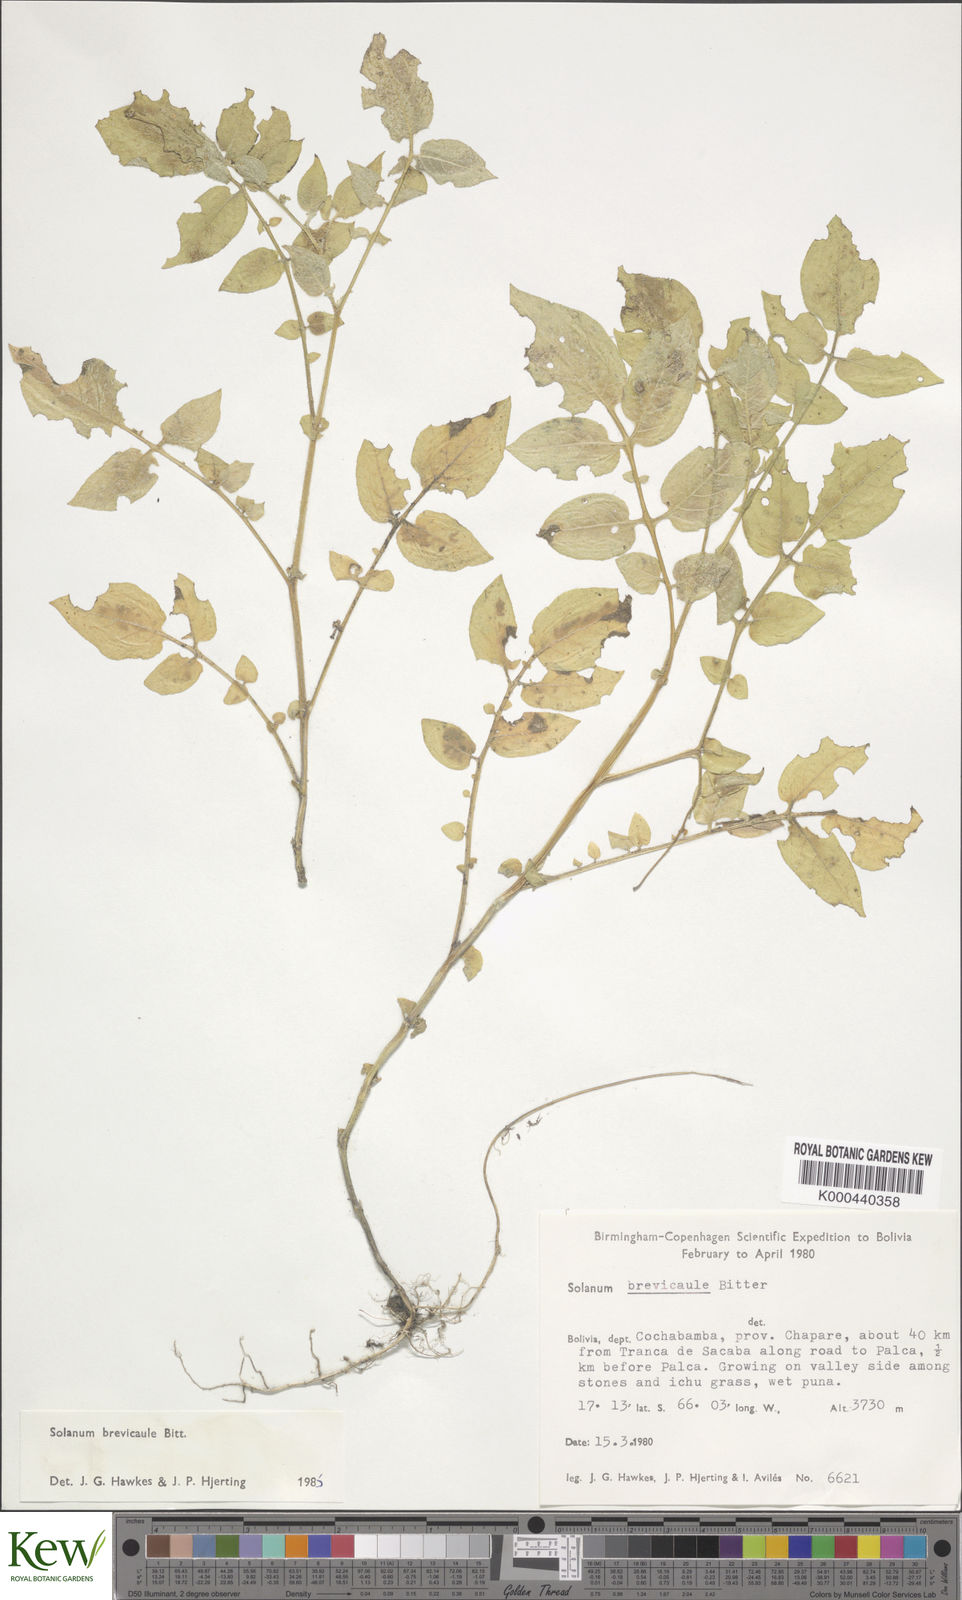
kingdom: Plantae
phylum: Tracheophyta
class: Magnoliopsida
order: Solanales
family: Solanaceae
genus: Solanum
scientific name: Solanum brevicaule
